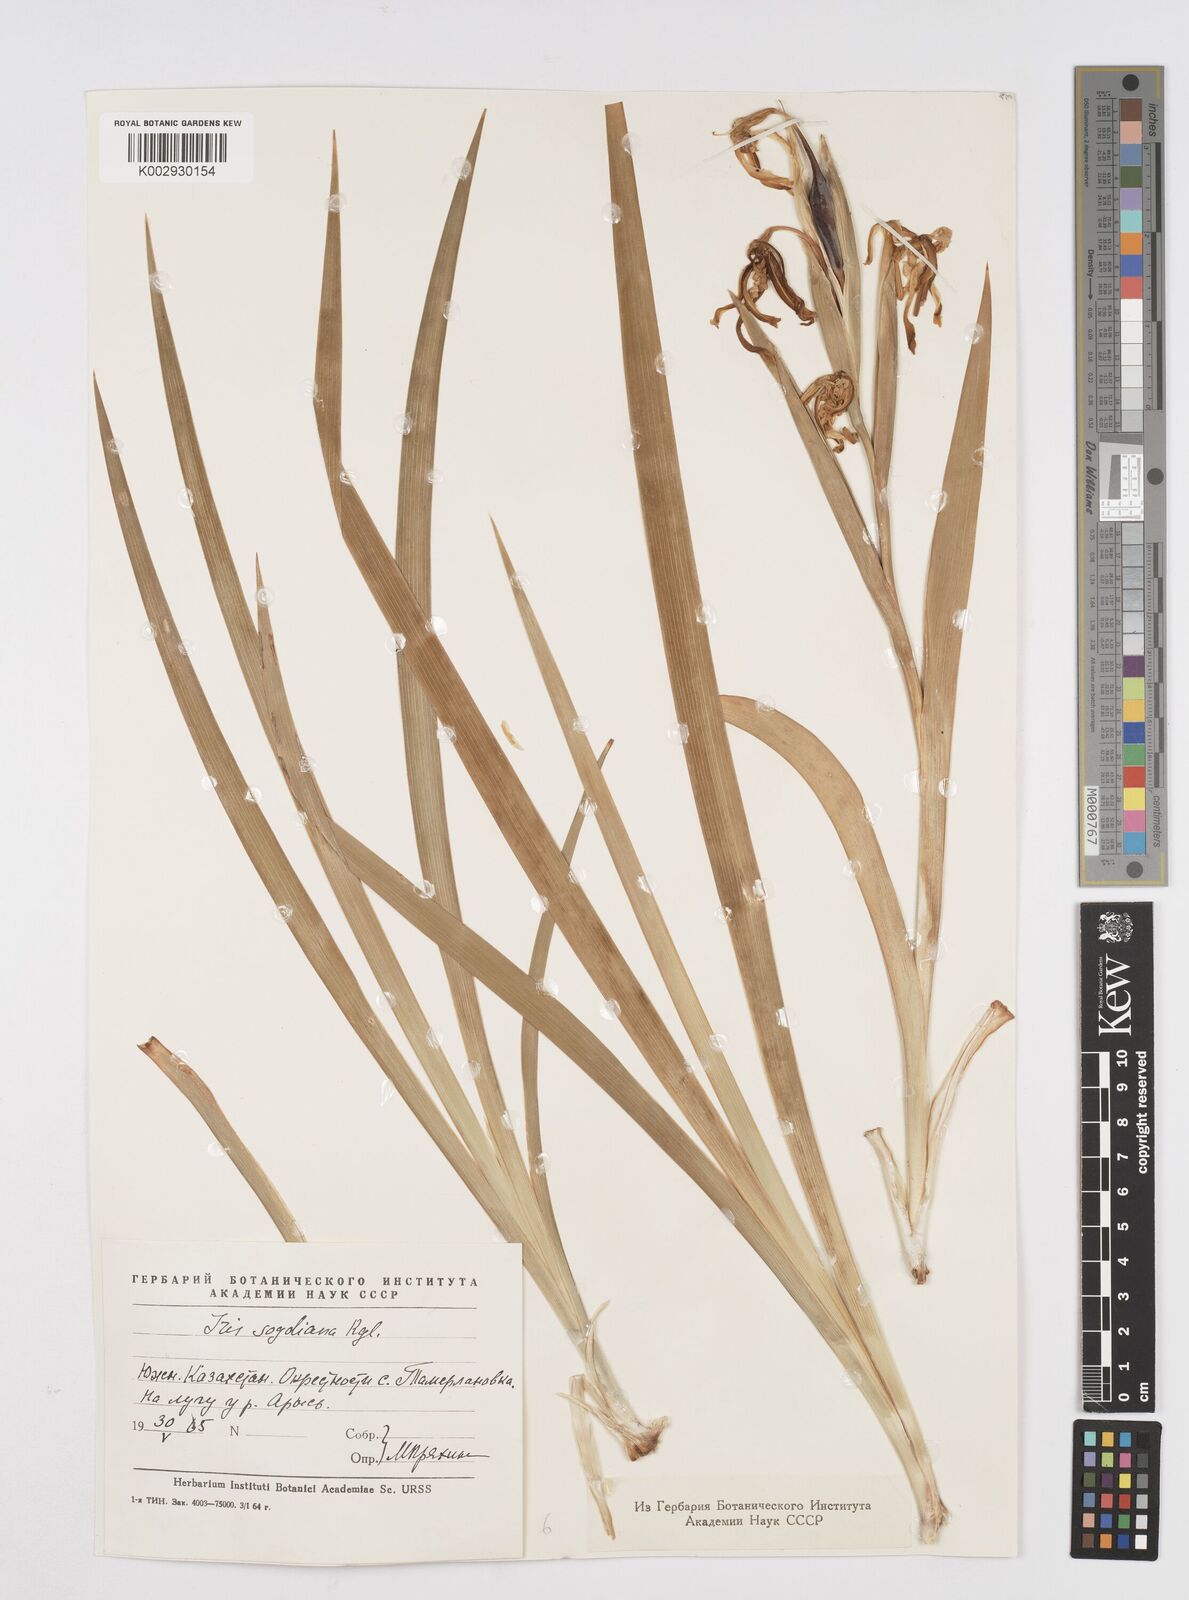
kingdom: Plantae
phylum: Tracheophyta
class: Liliopsida
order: Asparagales
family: Iridaceae
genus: Iris
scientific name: Iris halophila
